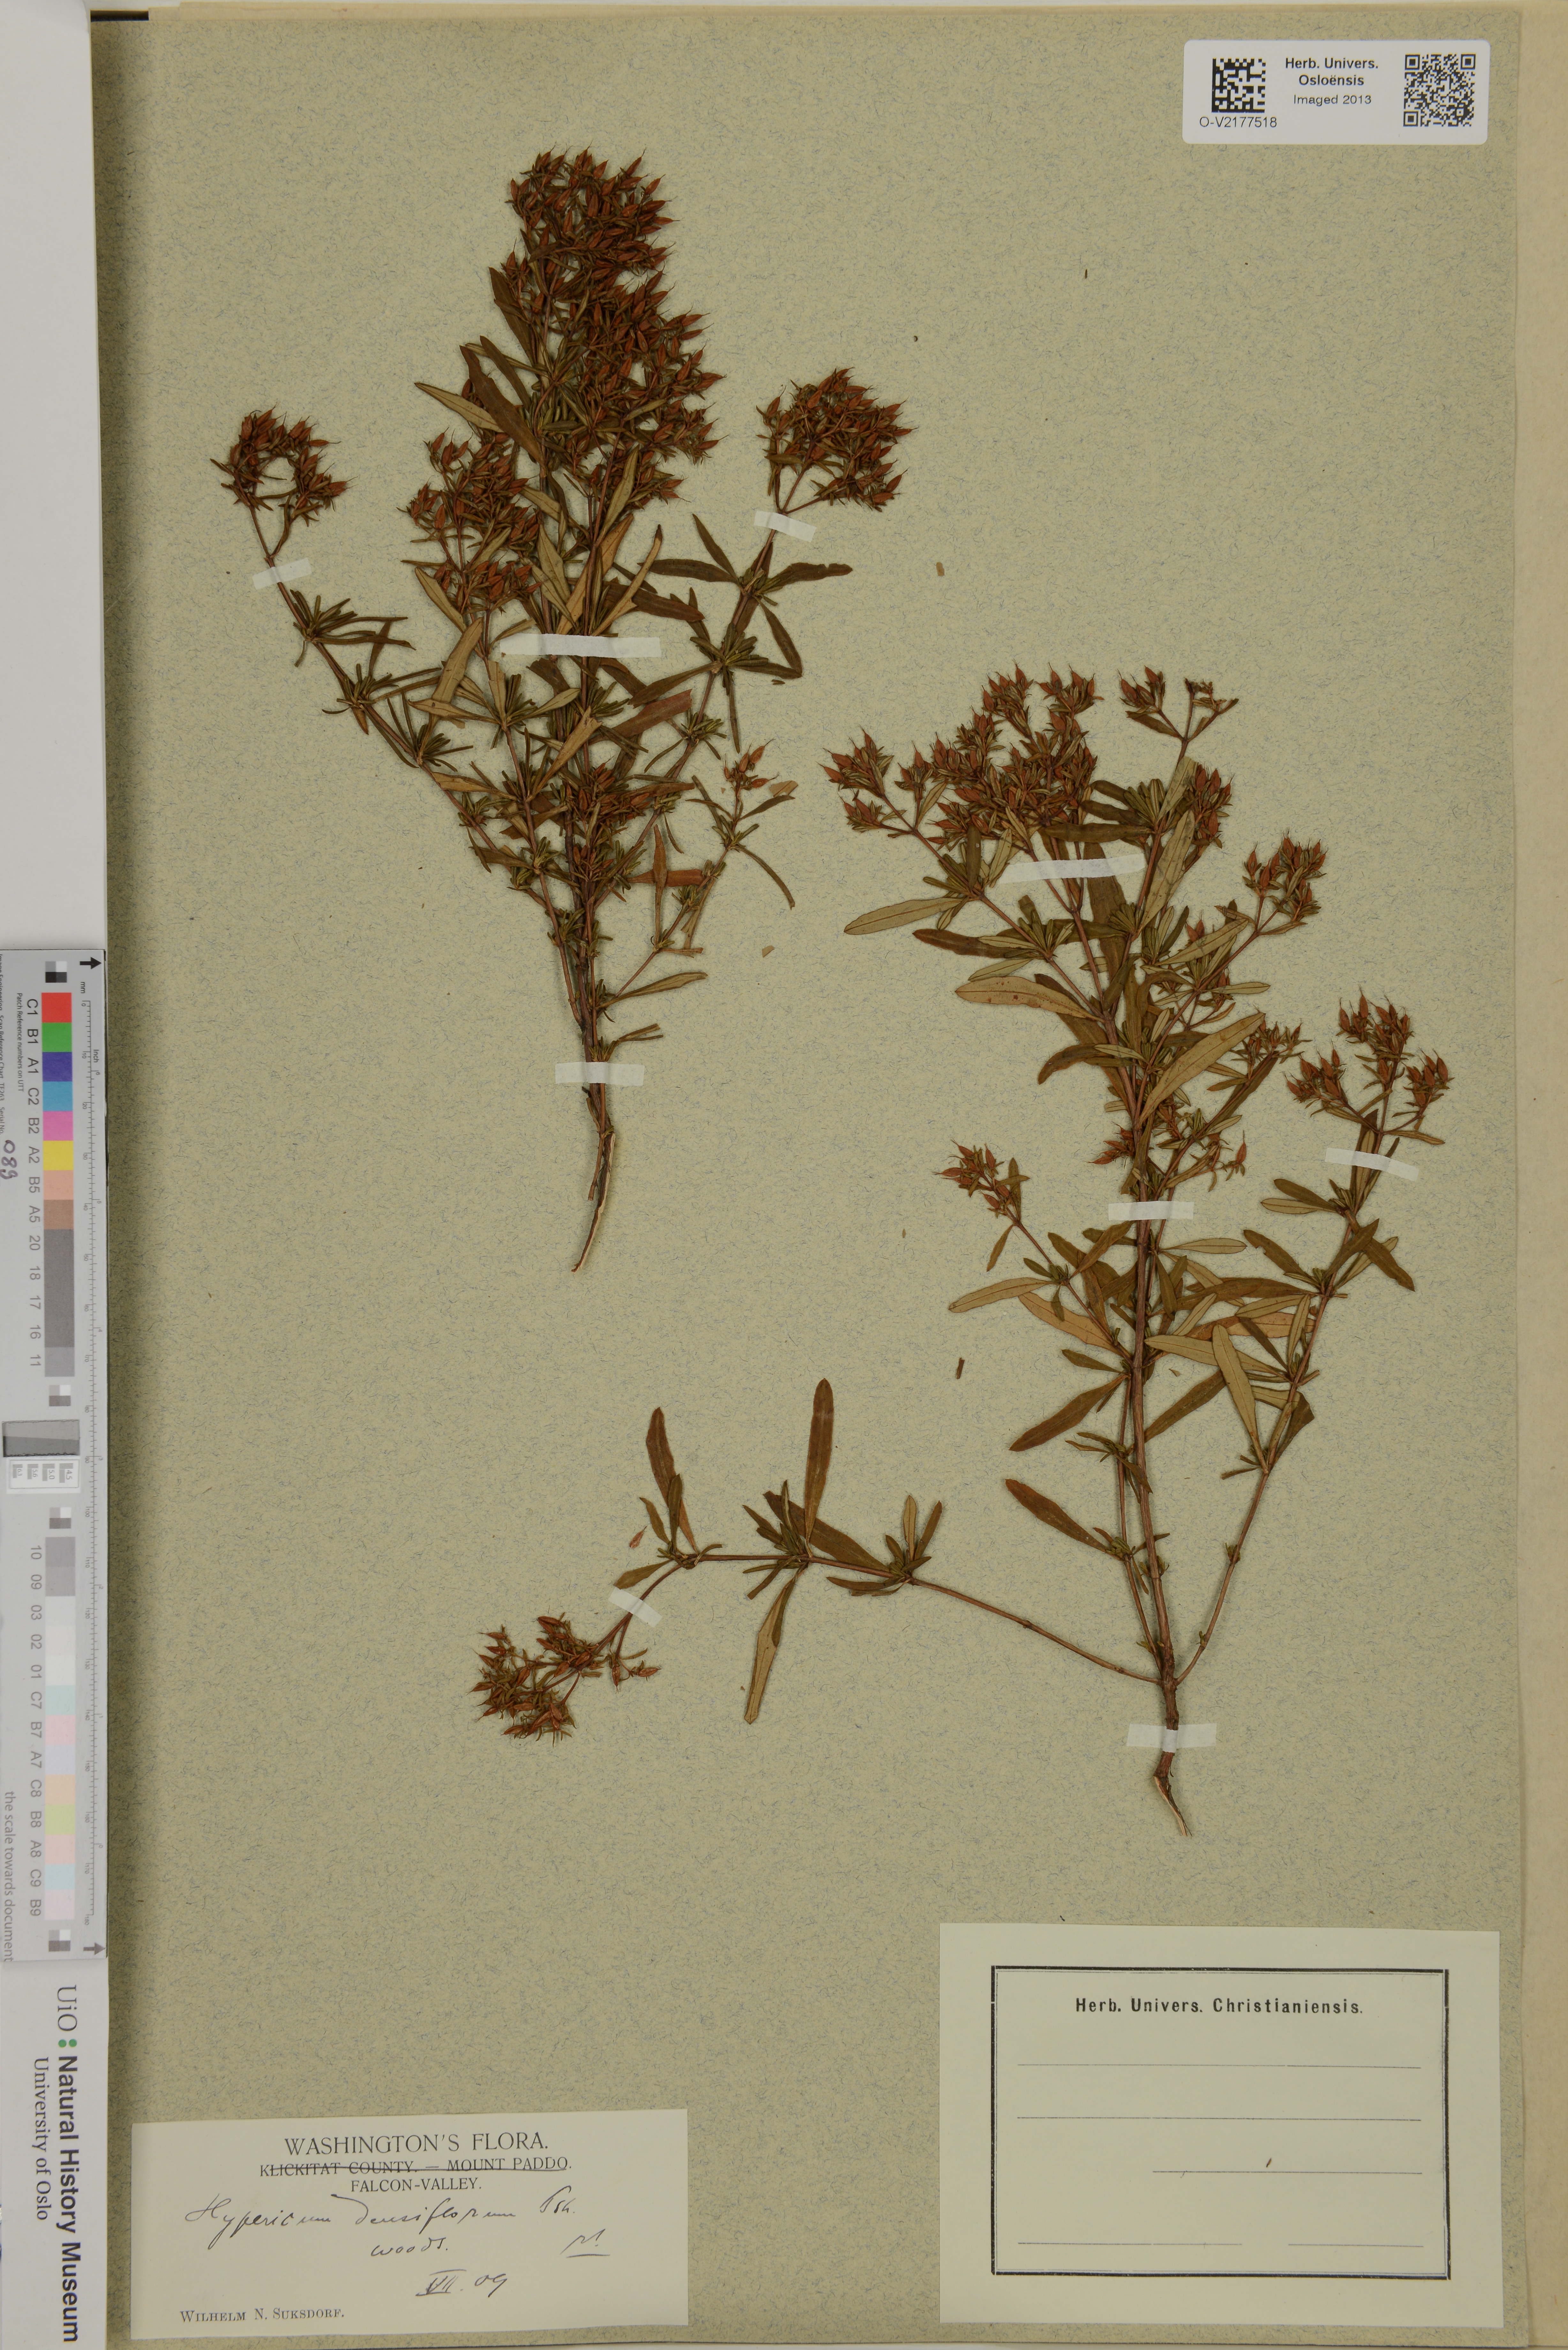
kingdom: Plantae
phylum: Tracheophyta
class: Magnoliopsida
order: Malpighiales
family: Hypericaceae
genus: Hypericum
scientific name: Hypericum densiflorum
